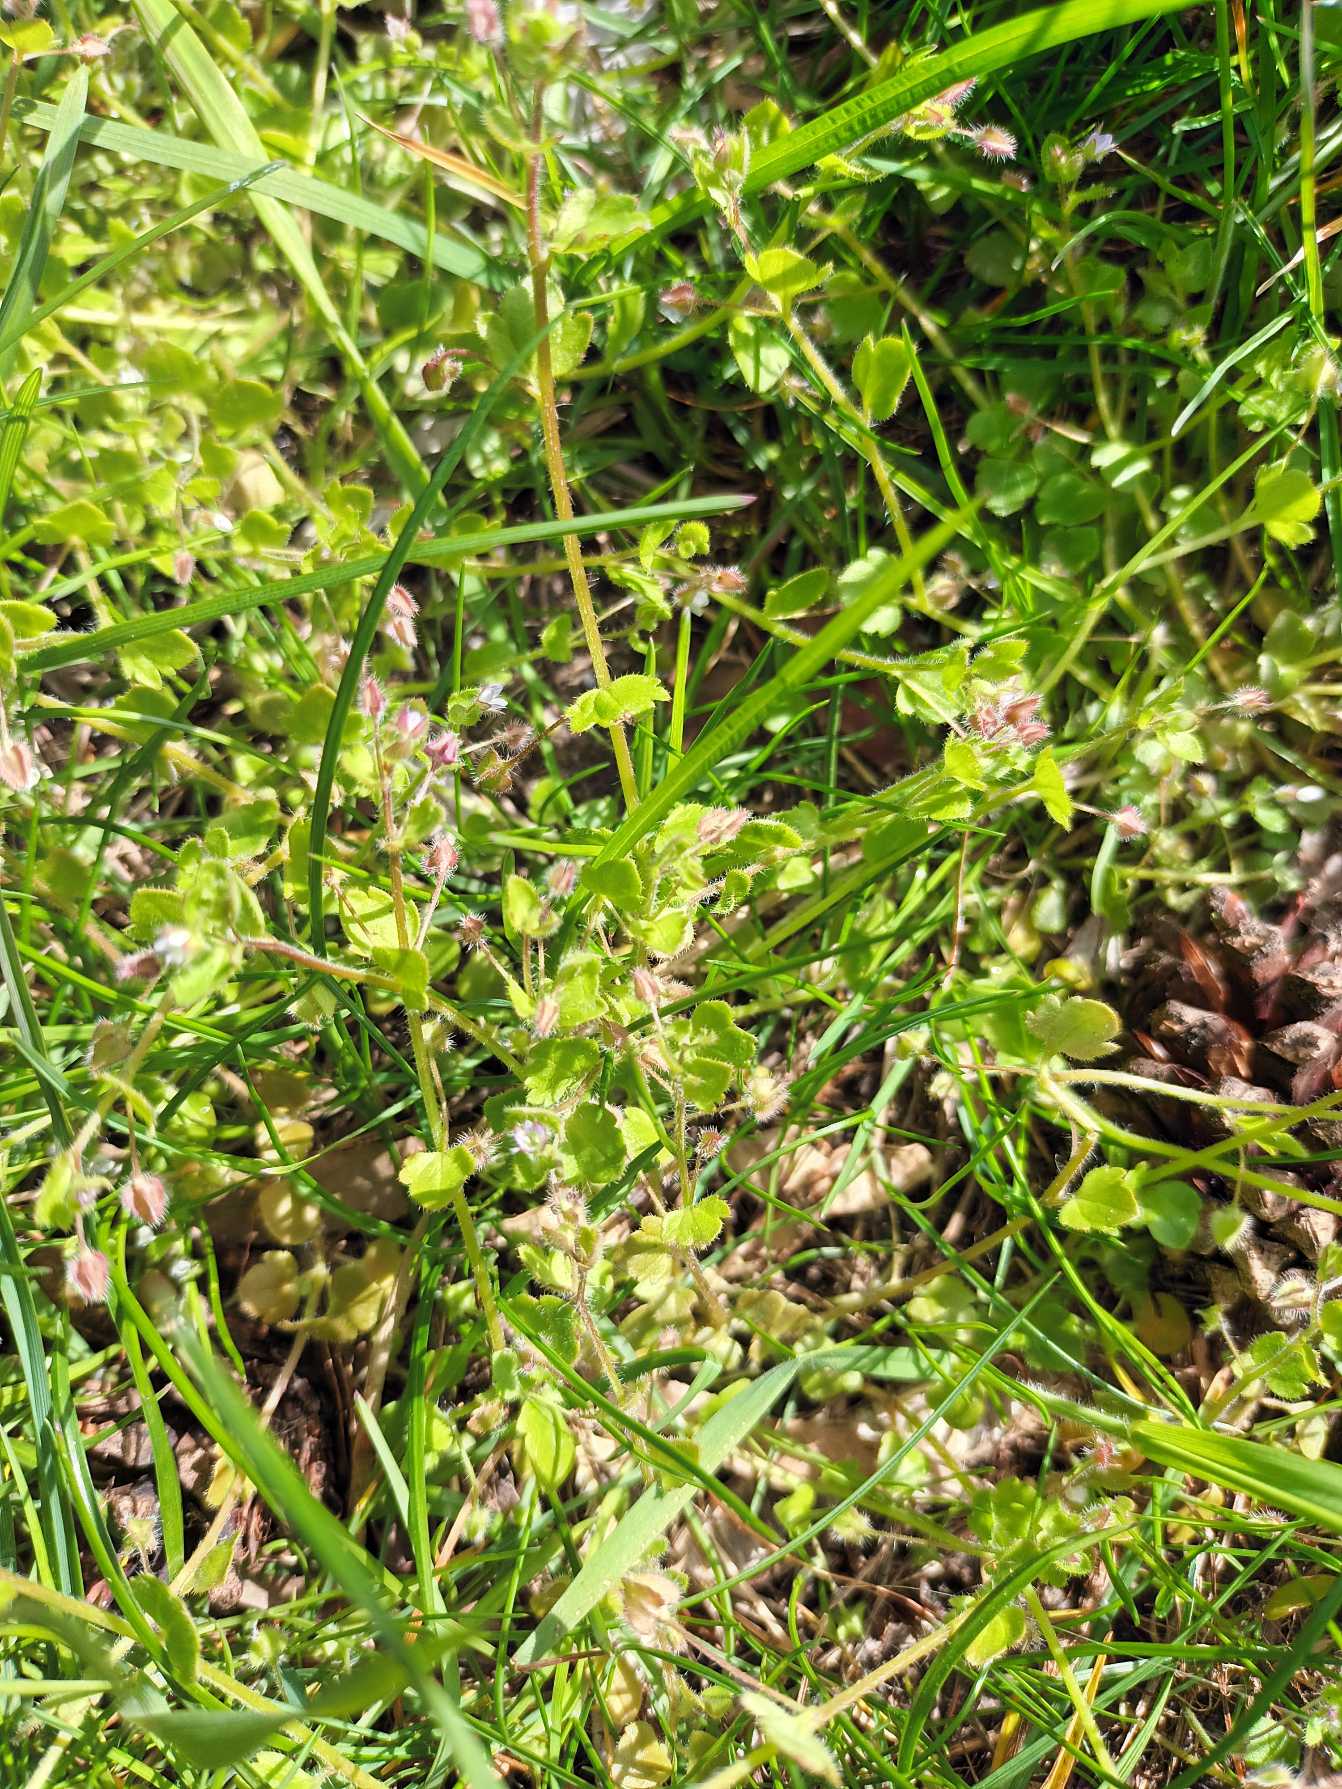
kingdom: Plantae
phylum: Tracheophyta
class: Magnoliopsida
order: Lamiales
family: Plantaginaceae
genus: Veronica
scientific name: Veronica sublobata
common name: Krat-ærenpris
